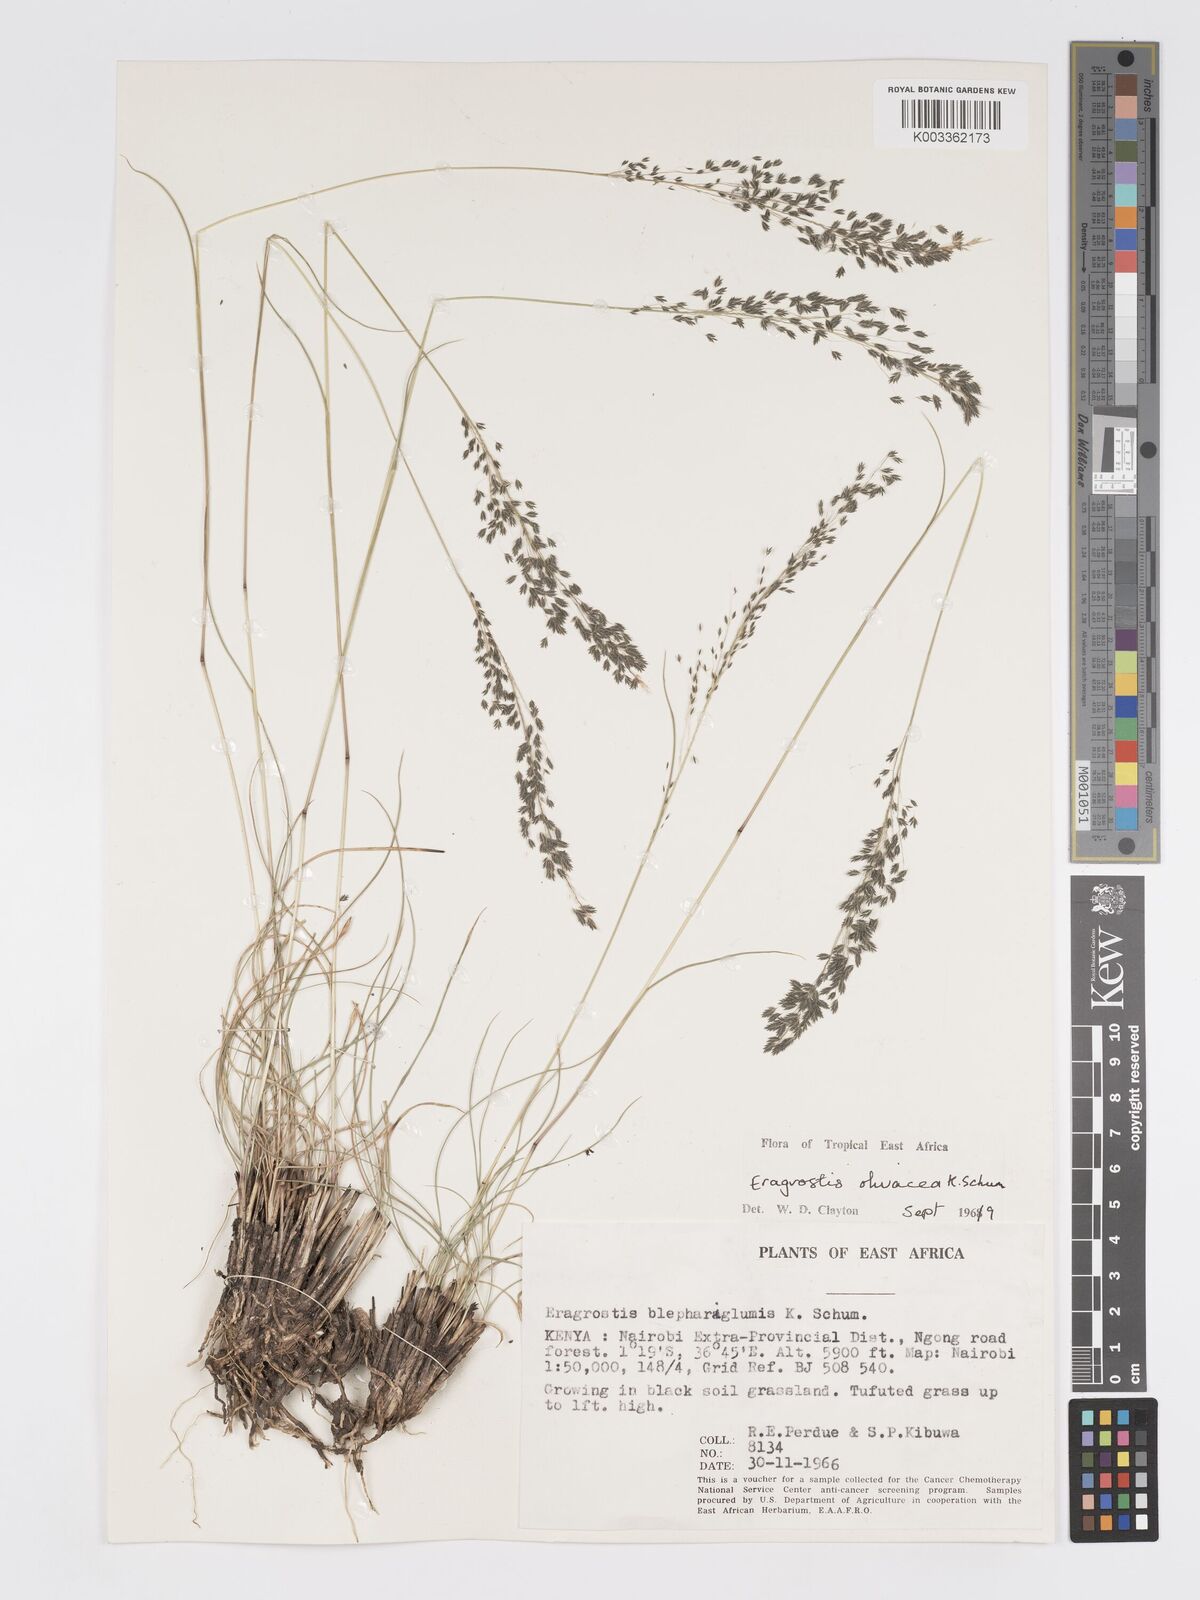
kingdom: Plantae
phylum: Tracheophyta
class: Liliopsida
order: Poales
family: Poaceae
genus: Eragrostis
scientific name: Eragrostis olivacea
